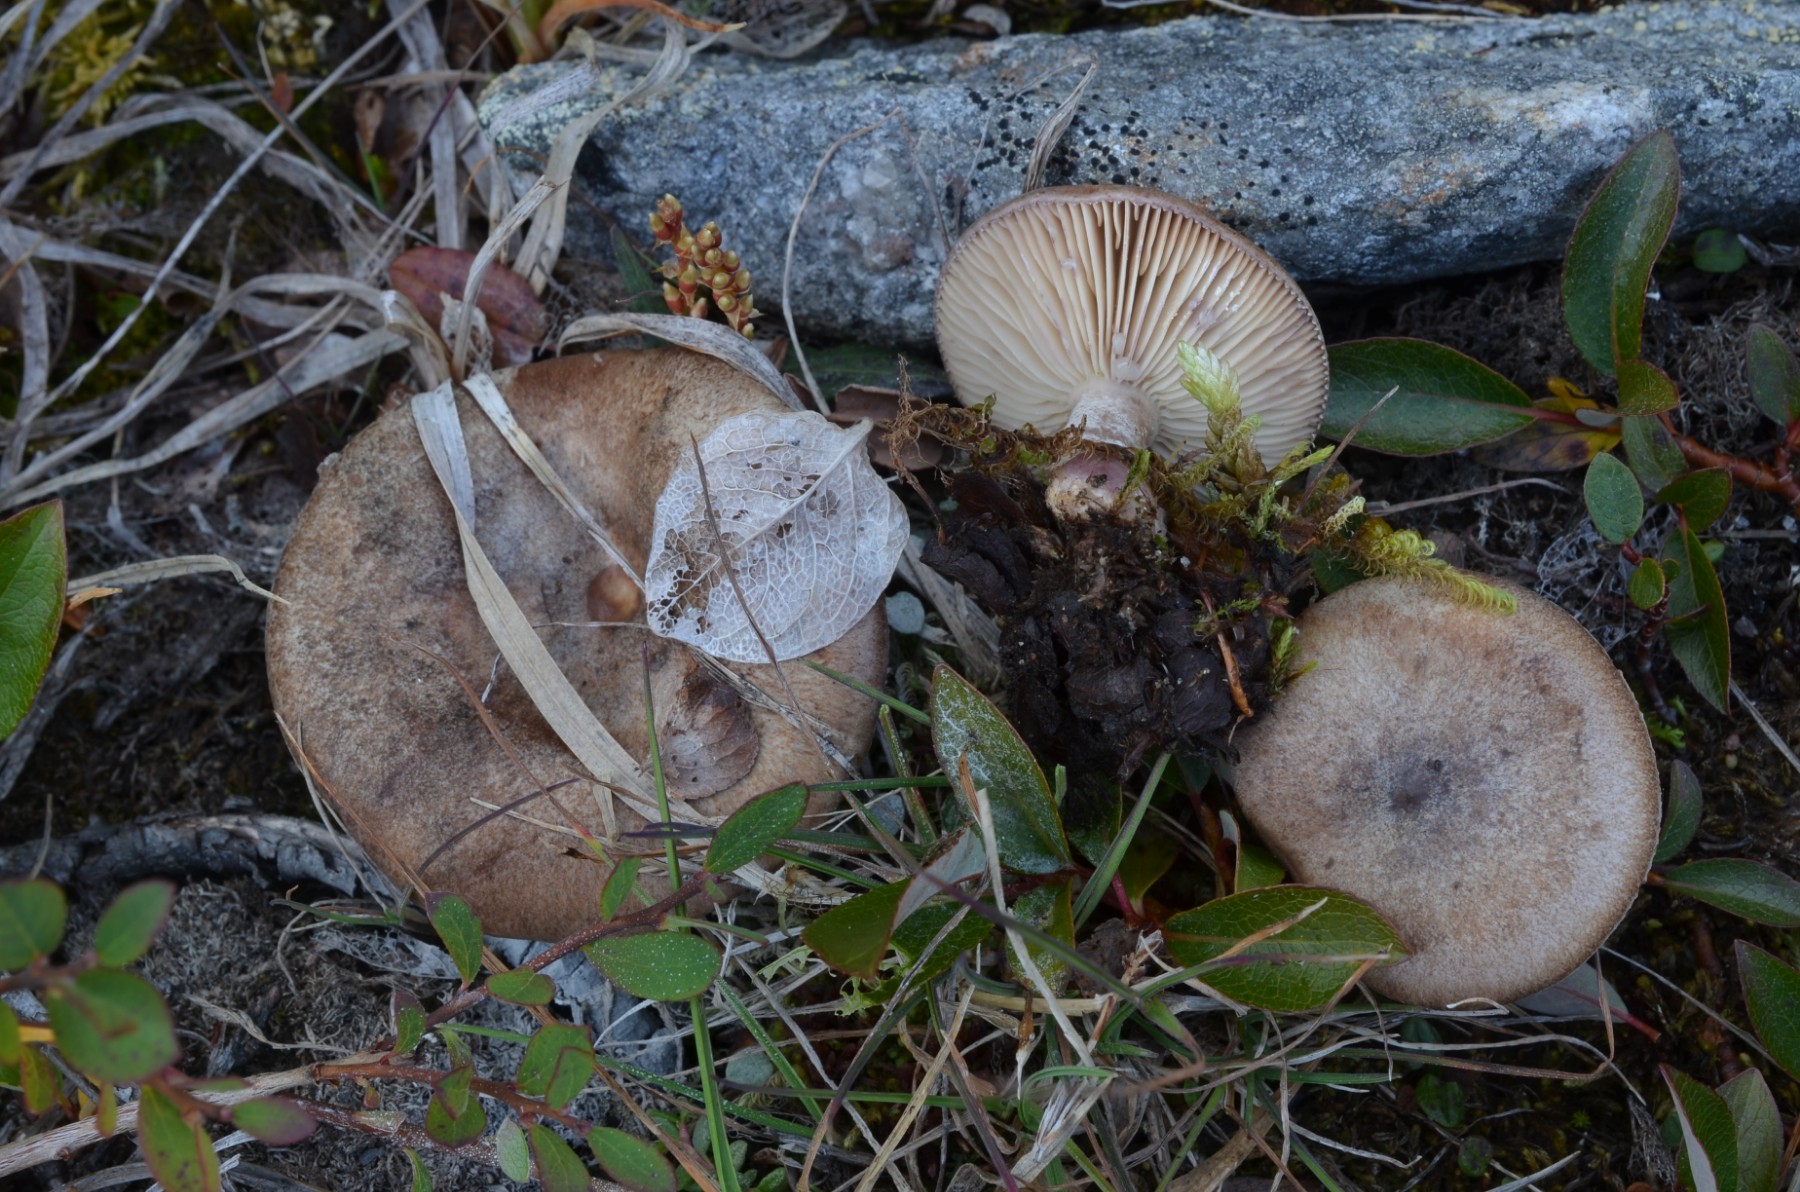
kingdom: Fungi
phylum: Basidiomycota
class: Agaricomycetes
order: Russulales
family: Russulaceae
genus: Lactarius
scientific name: Lactarius brunneoviolaceus
